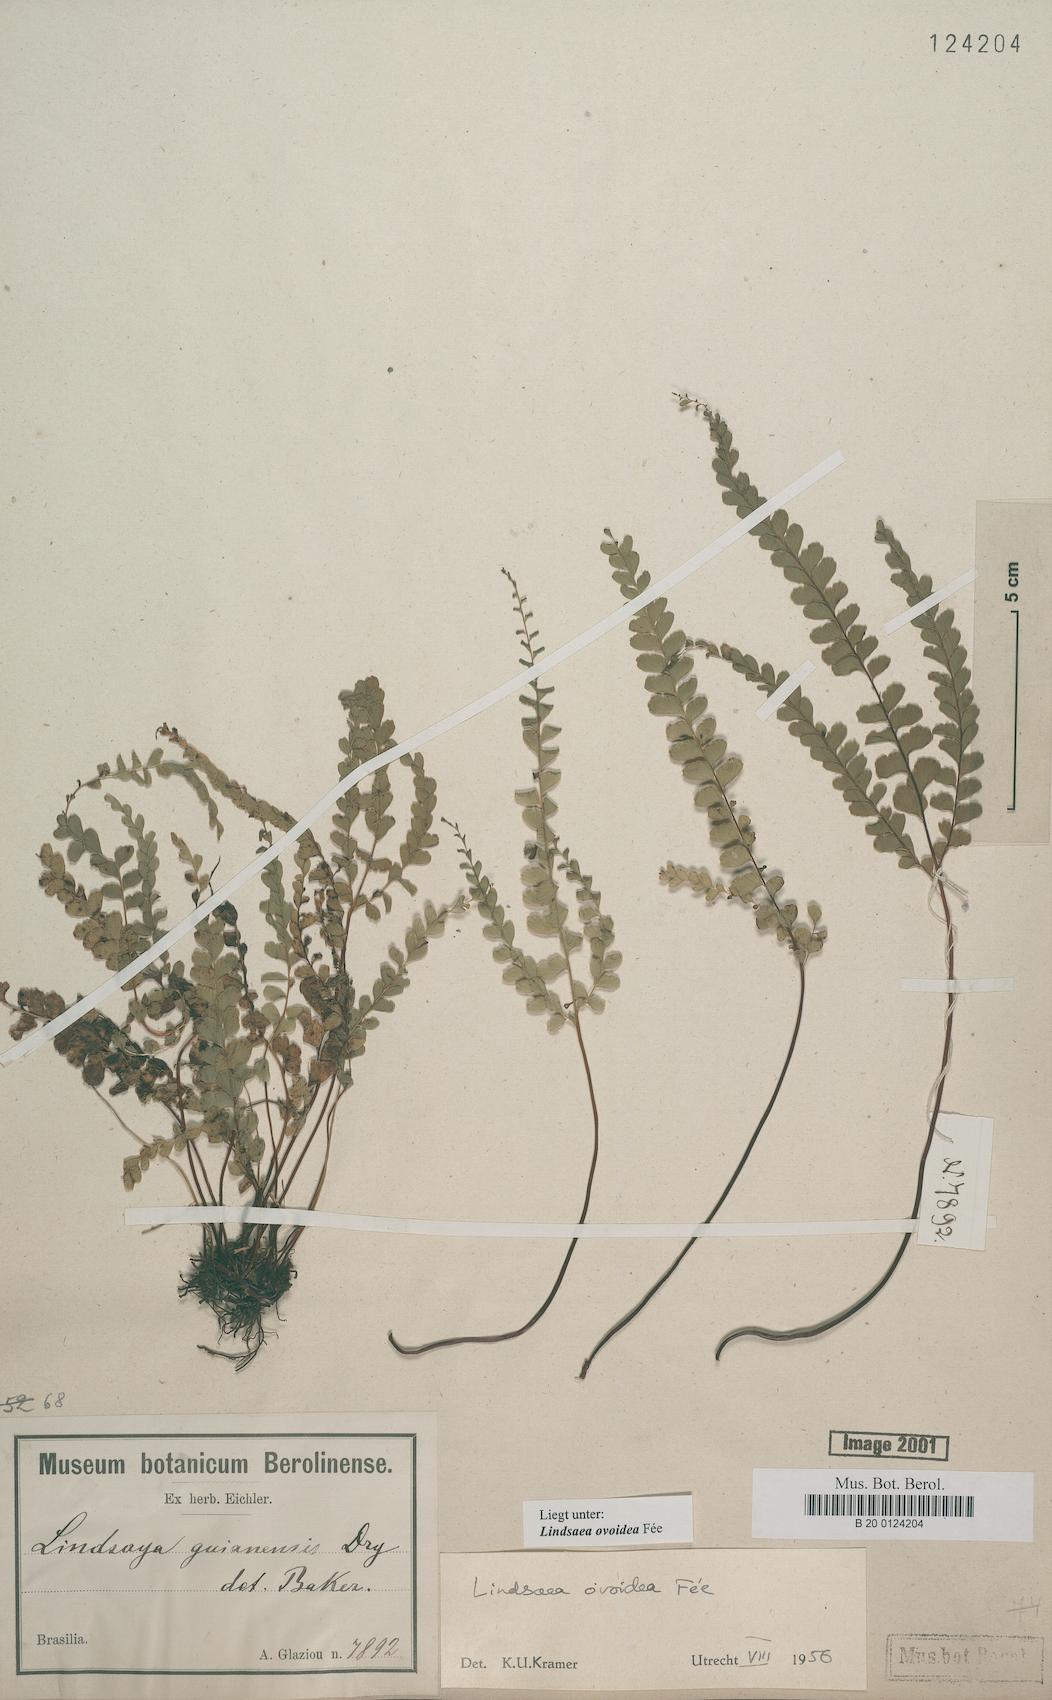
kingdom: Plantae
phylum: Tracheophyta
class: Polypodiopsida
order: Polypodiales
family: Lindsaeaceae
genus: Lindsaea
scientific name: Lindsaea ovoidea
